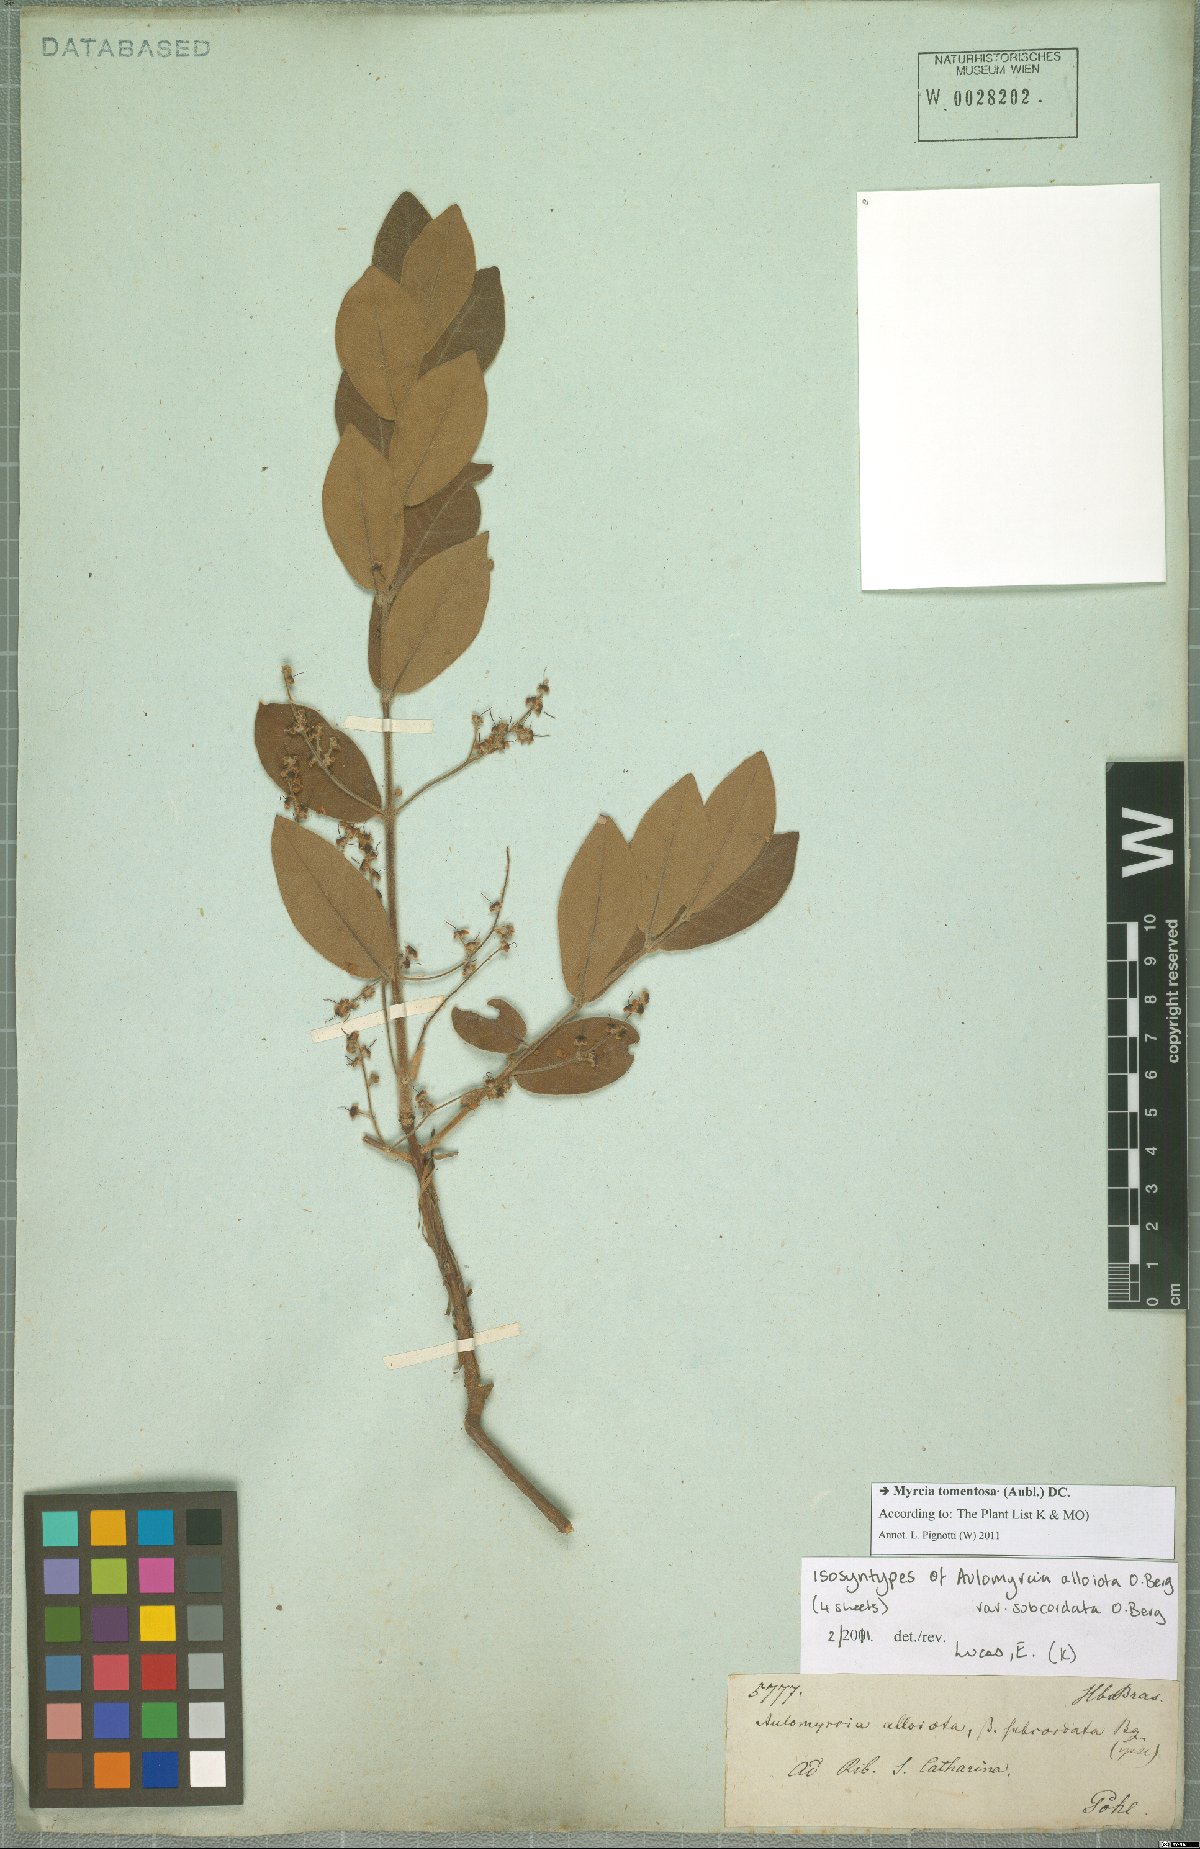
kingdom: Plantae
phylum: Tracheophyta
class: Magnoliopsida
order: Myrtales
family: Myrtaceae
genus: Myrcia
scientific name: Myrcia tomentosa
